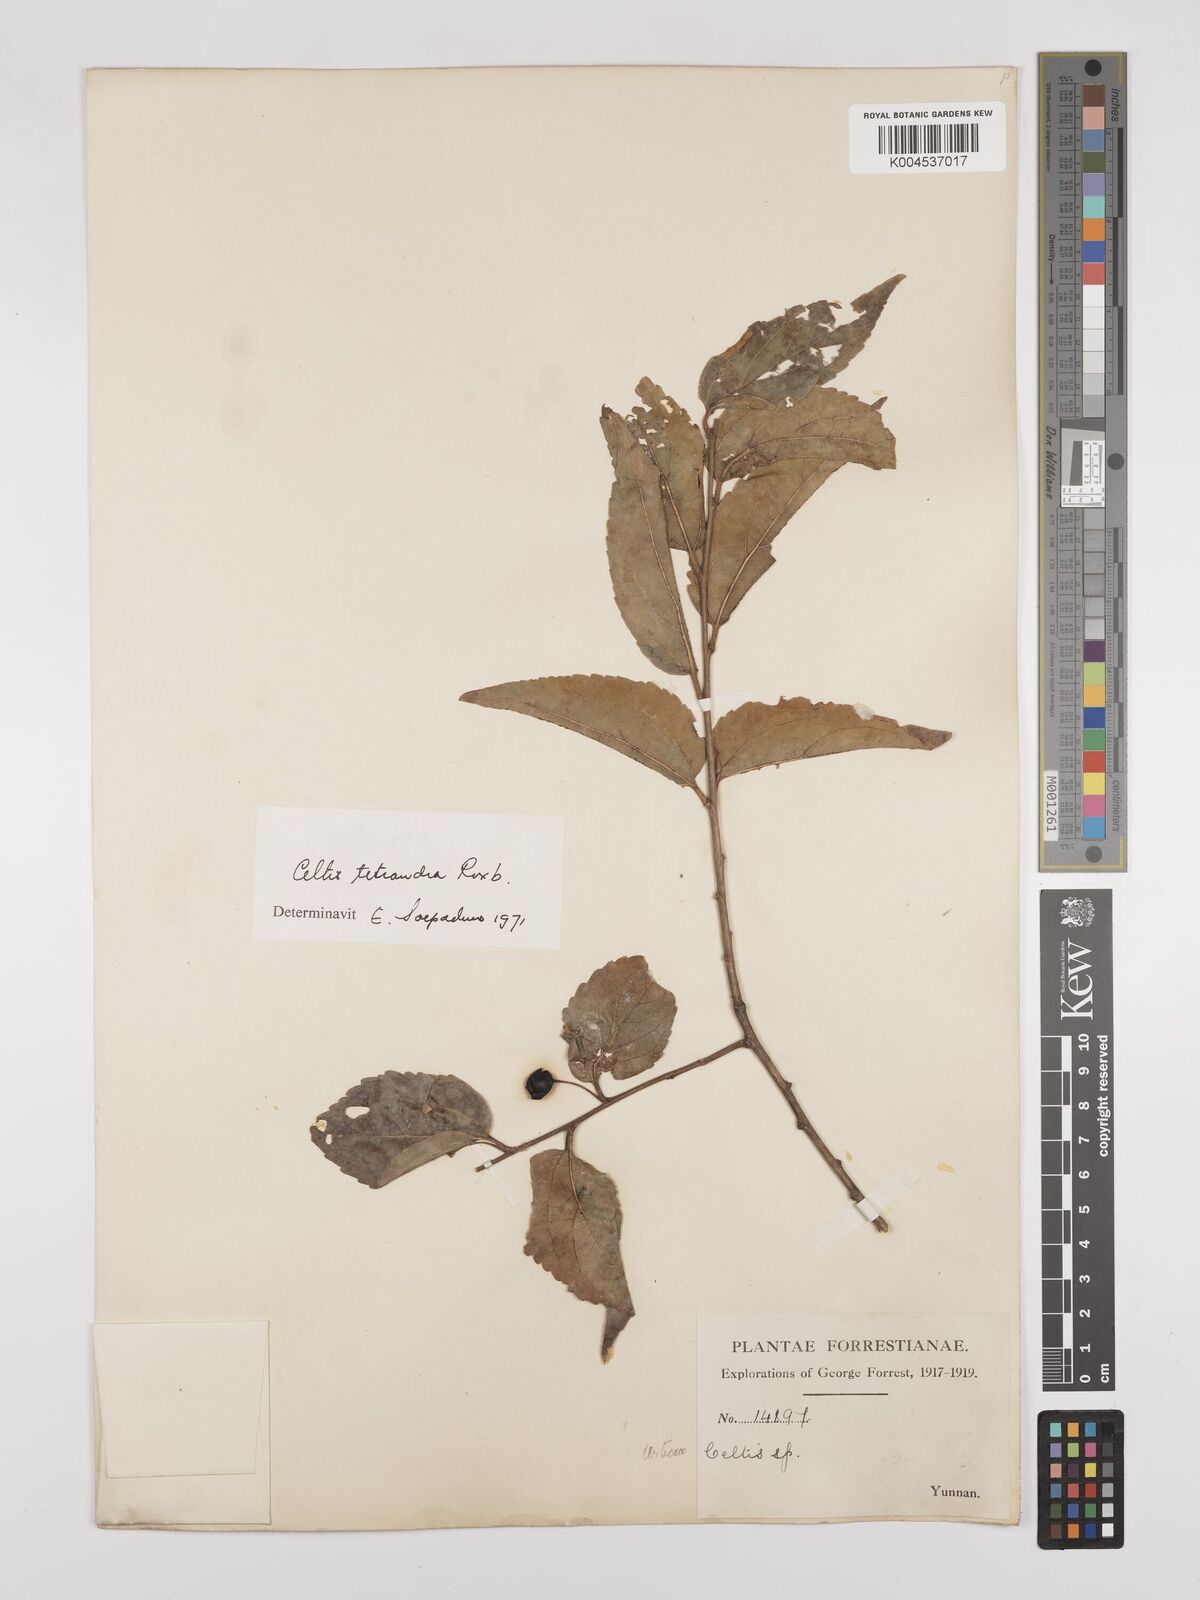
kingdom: Plantae
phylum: Tracheophyta
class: Magnoliopsida
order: Rosales
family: Cannabaceae
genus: Celtis
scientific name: Celtis tetrandra
